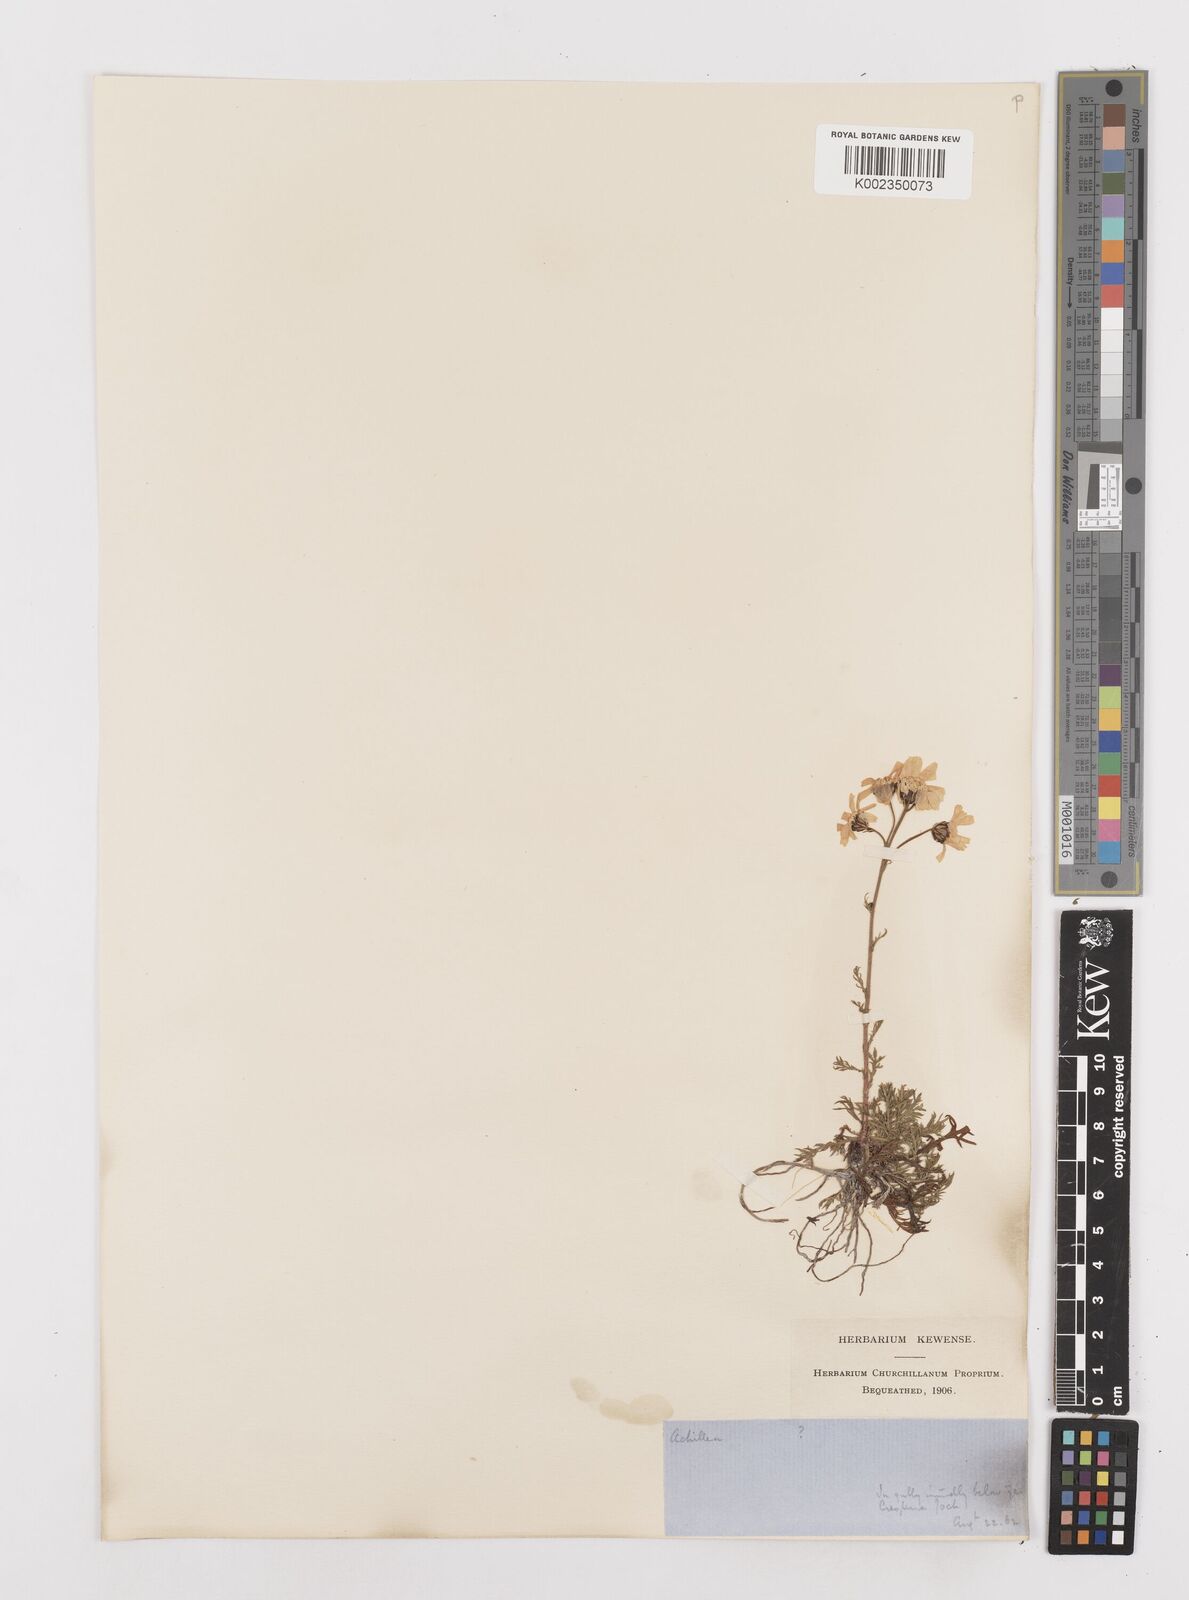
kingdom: Plantae
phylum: Tracheophyta
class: Magnoliopsida
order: Asterales
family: Asteraceae
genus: Achillea
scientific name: Achillea atrata
